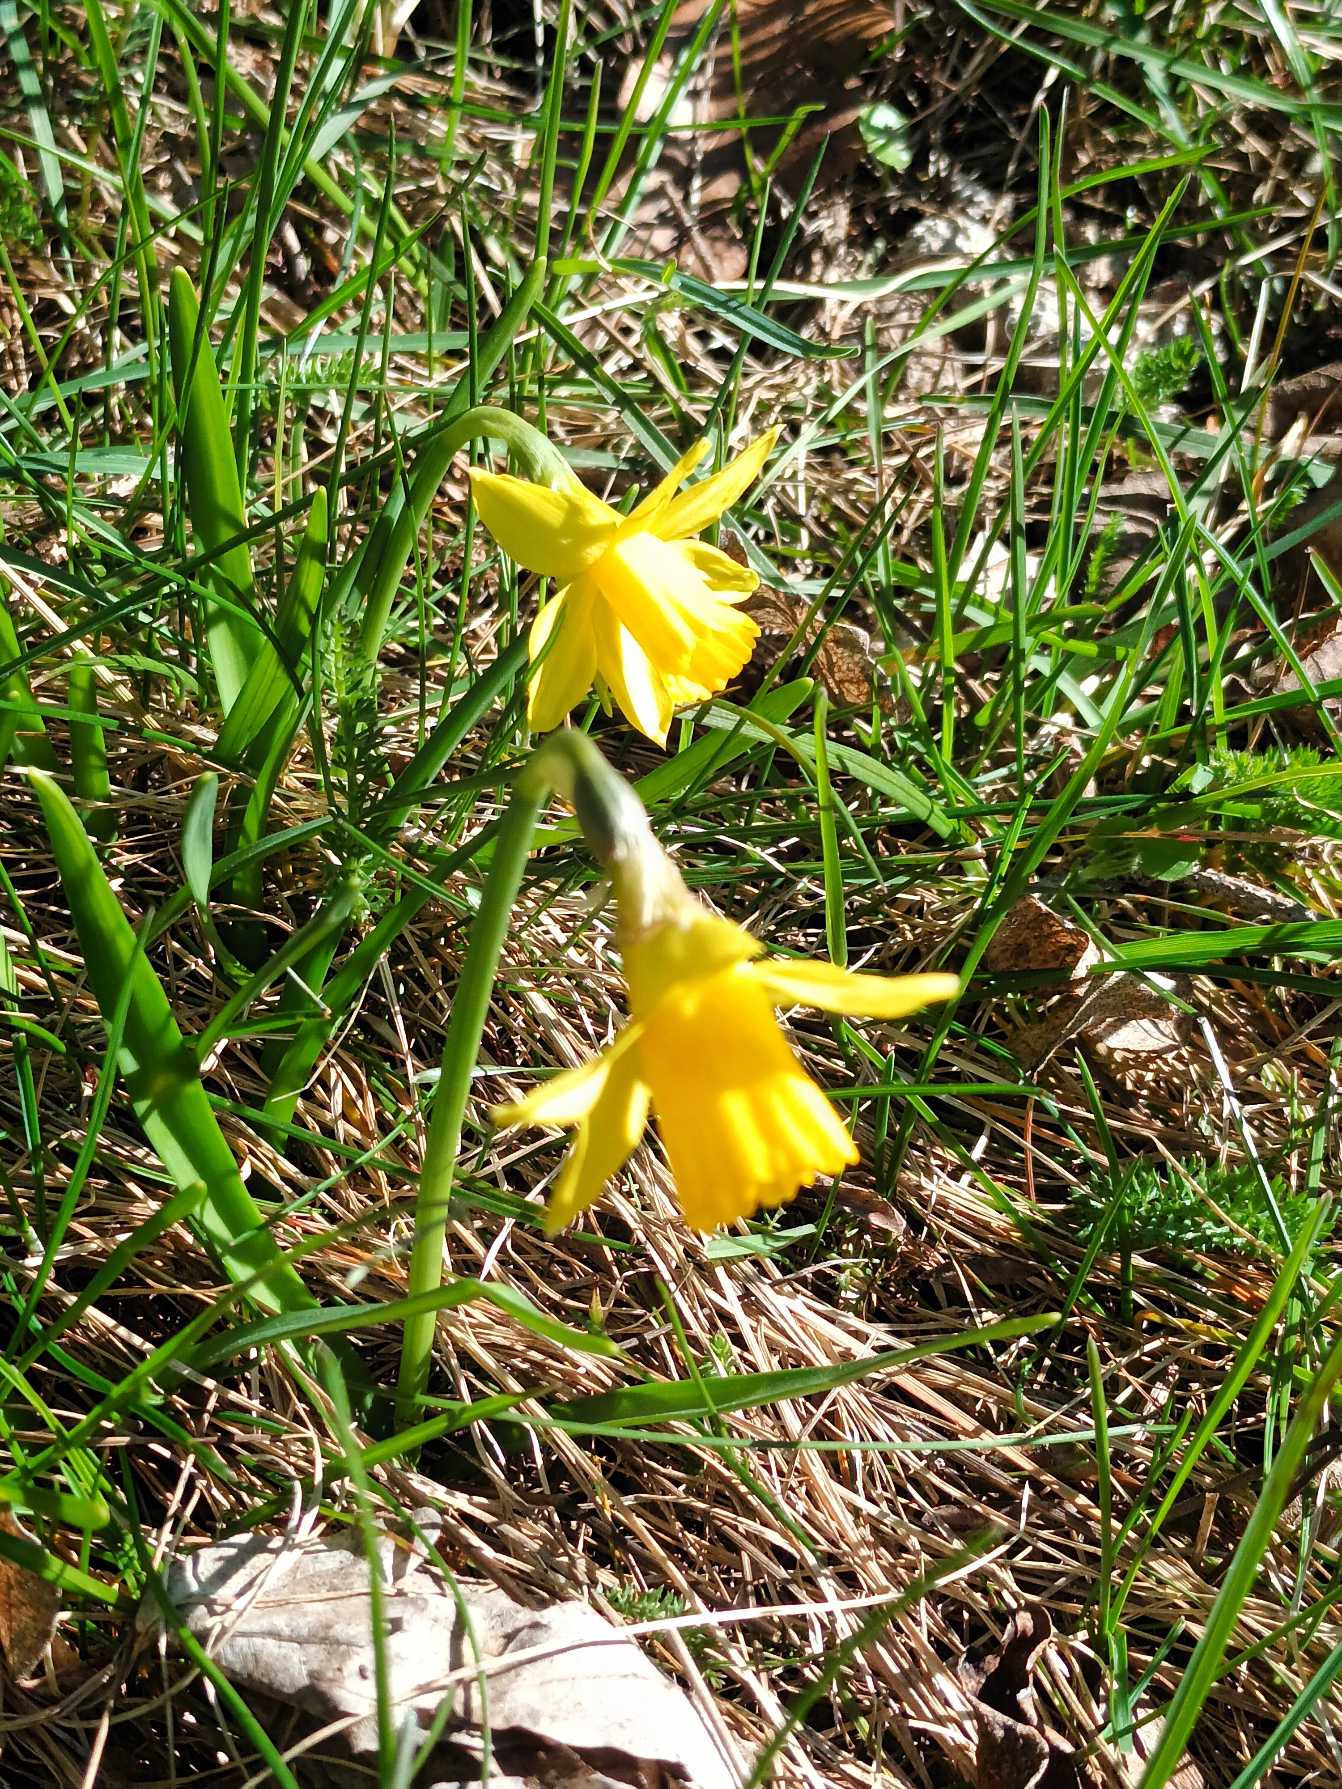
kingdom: Plantae
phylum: Tracheophyta
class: Liliopsida
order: Asparagales
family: Amaryllidaceae
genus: Narcissus
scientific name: Narcissus cyclazetta
